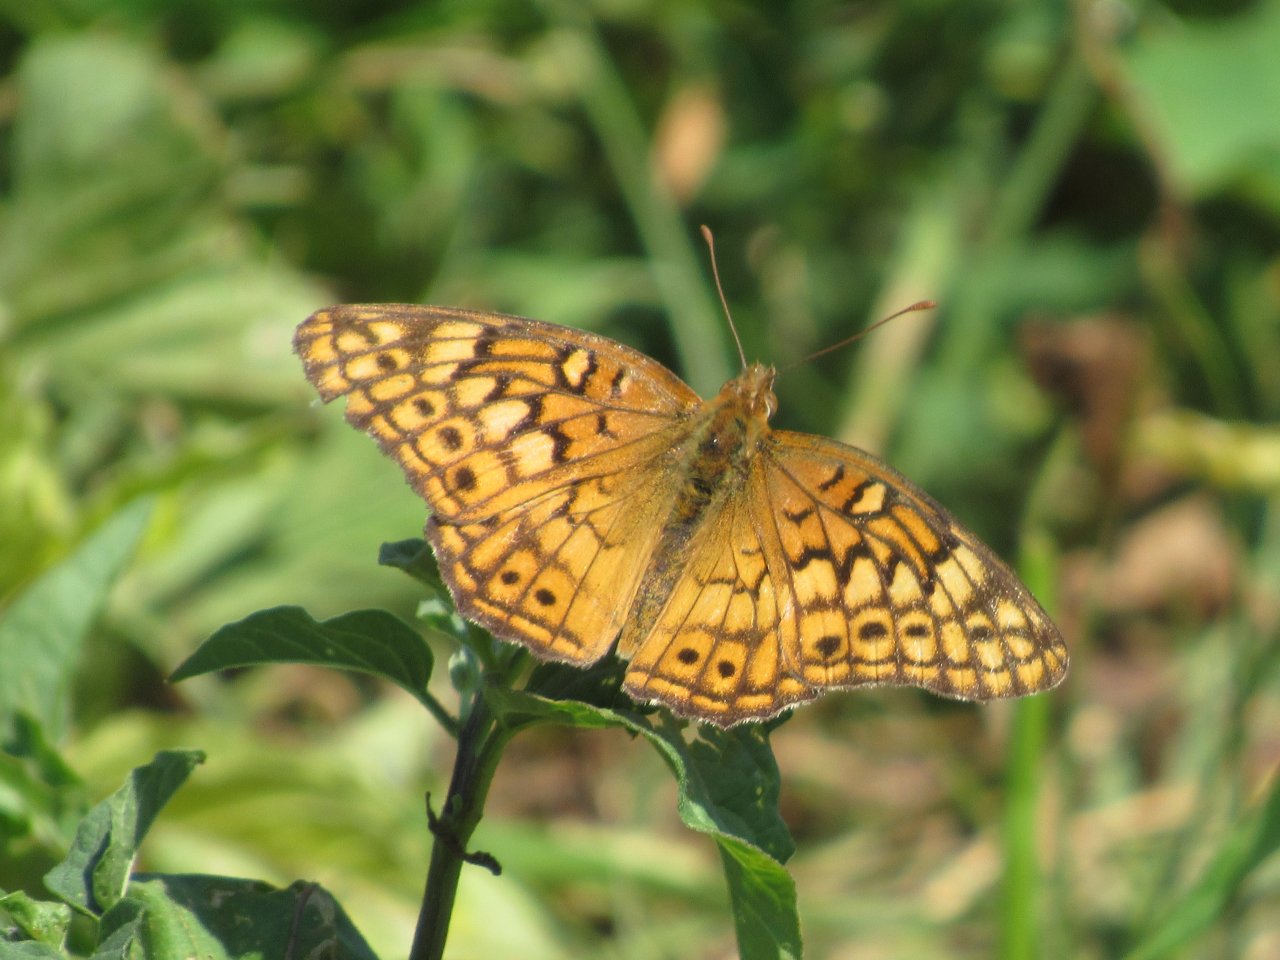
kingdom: Animalia
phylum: Arthropoda
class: Insecta
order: Lepidoptera
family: Nymphalidae
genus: Euptoieta
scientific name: Euptoieta claudia
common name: Variegated Fritillary
